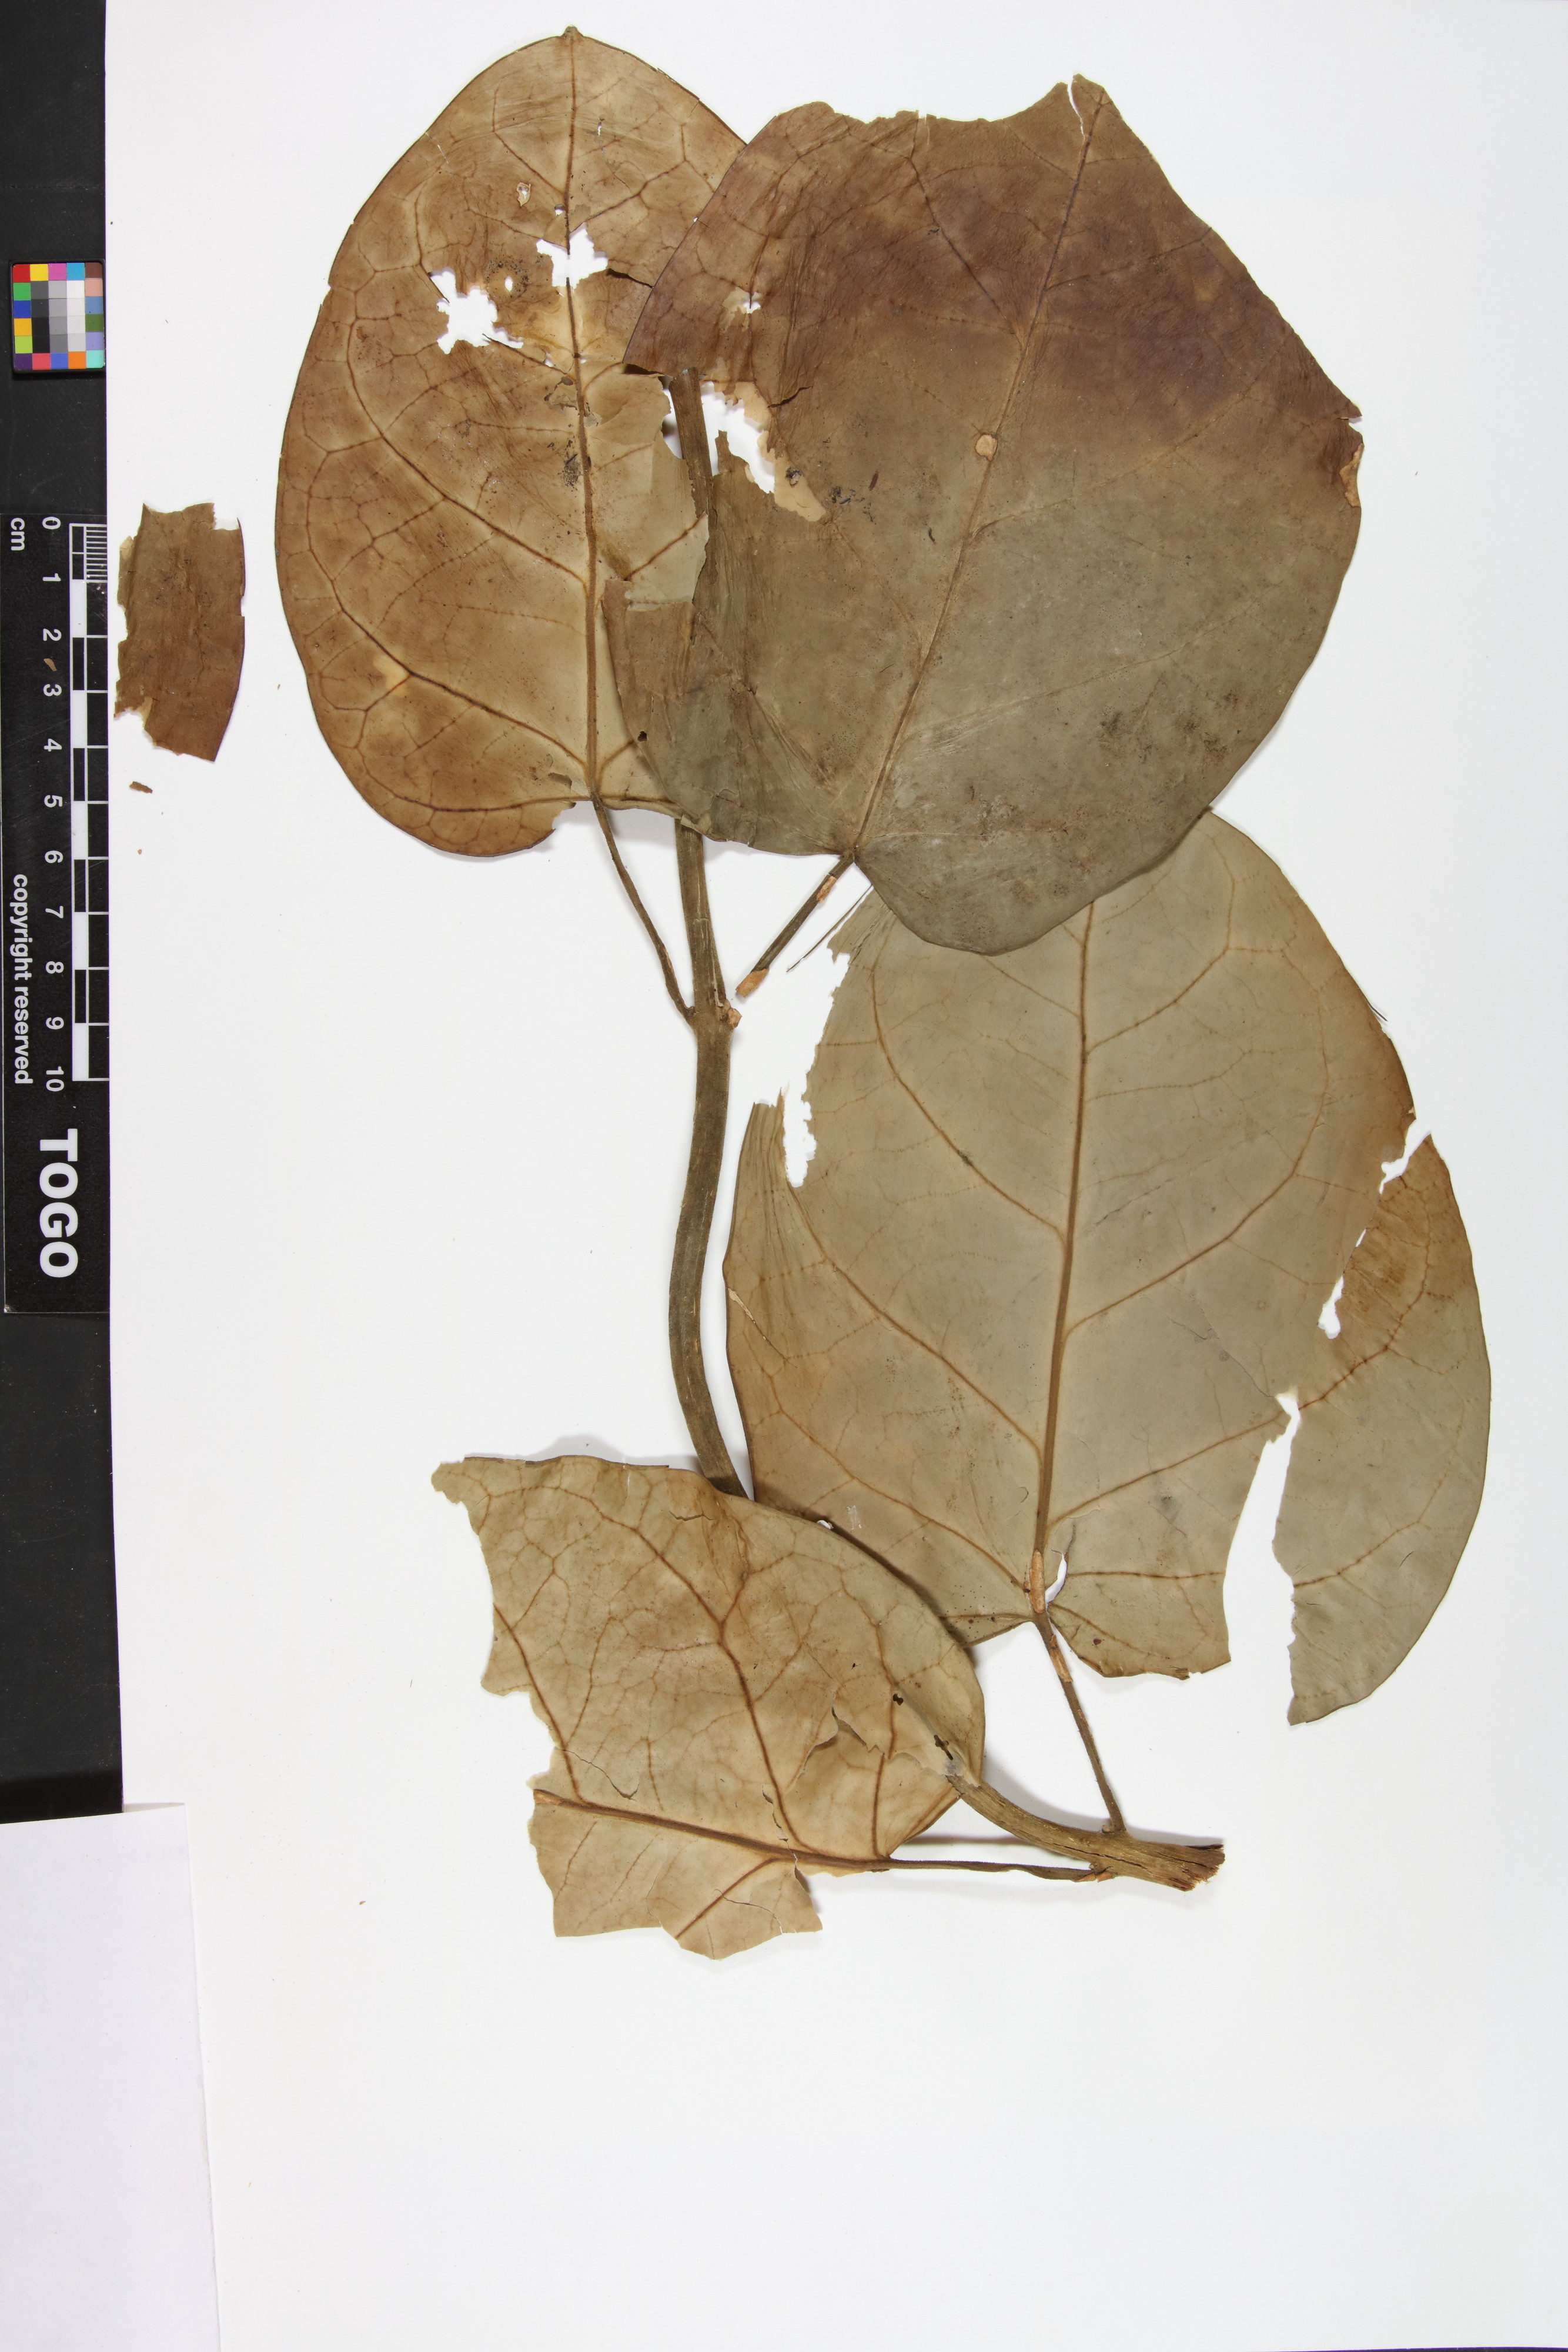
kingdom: Plantae
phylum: Tracheophyta
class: Magnoliopsida
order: Gentianales
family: Apocynaceae
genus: Vincetoxicum
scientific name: Vincetoxicum cameroonicum
